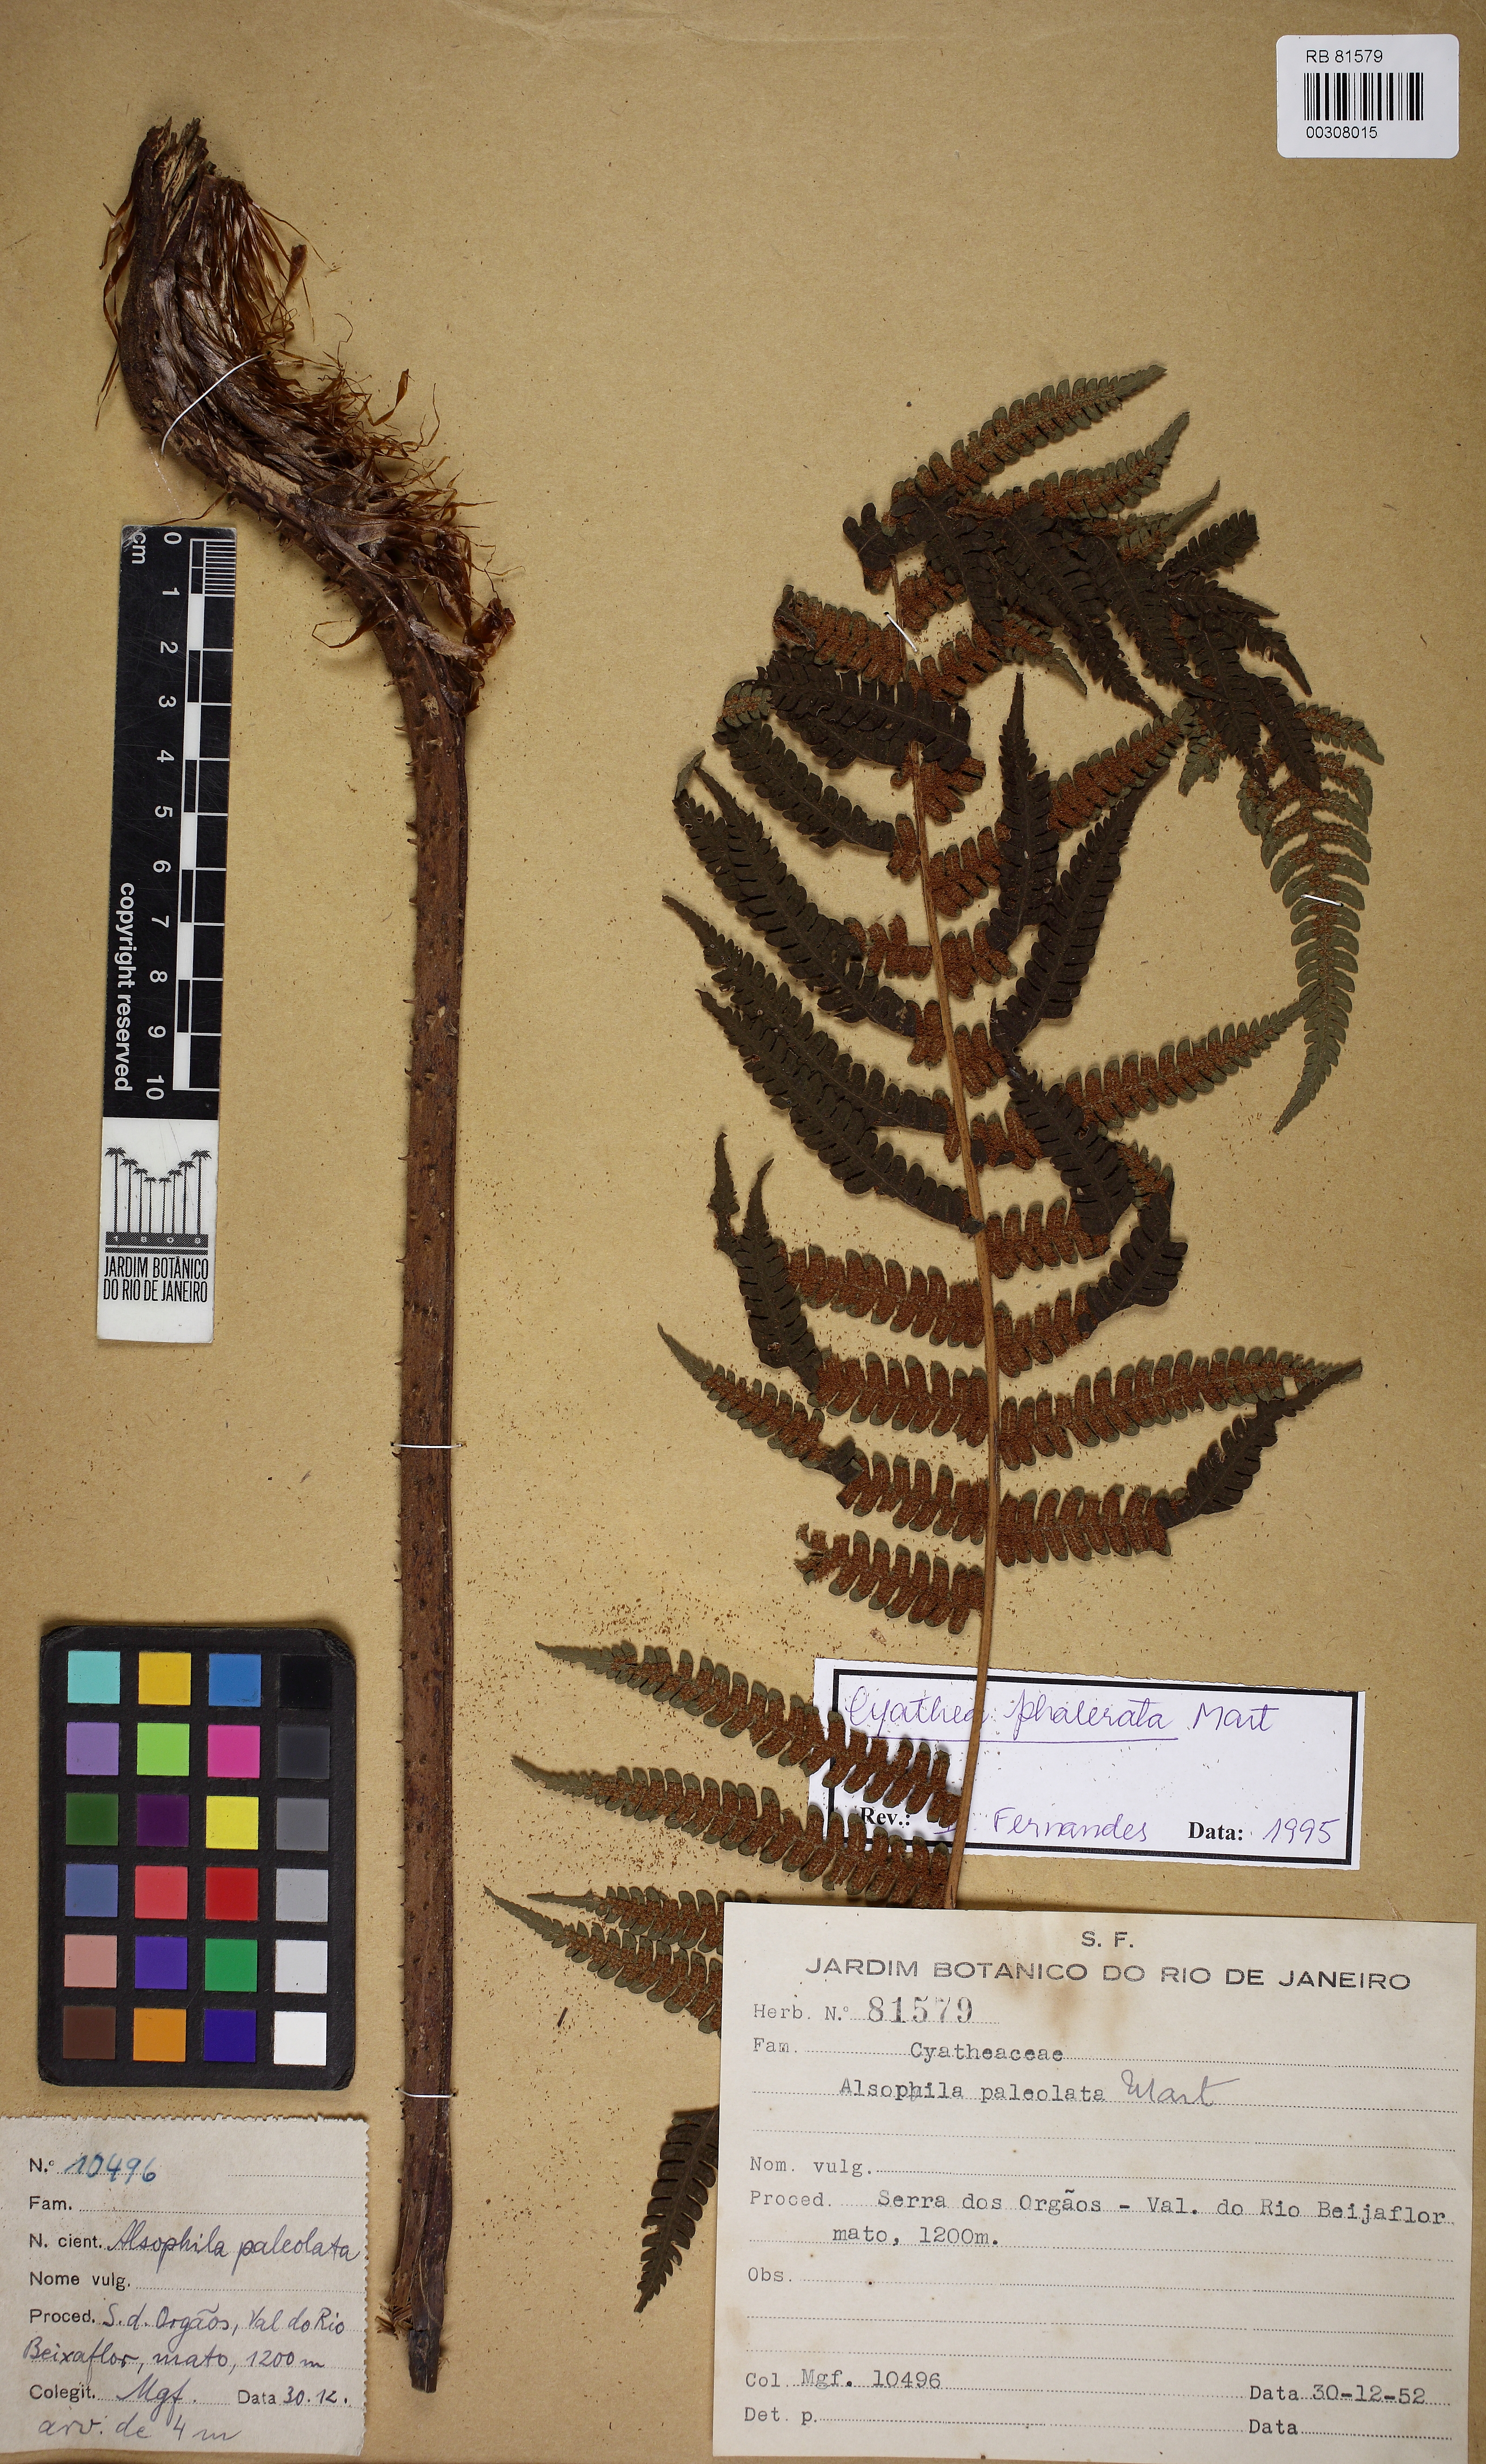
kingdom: Plantae
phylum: Tracheophyta
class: Polypodiopsida
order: Cyatheales
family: Cyatheaceae
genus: Cyathea
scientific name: Cyathea phalerata
